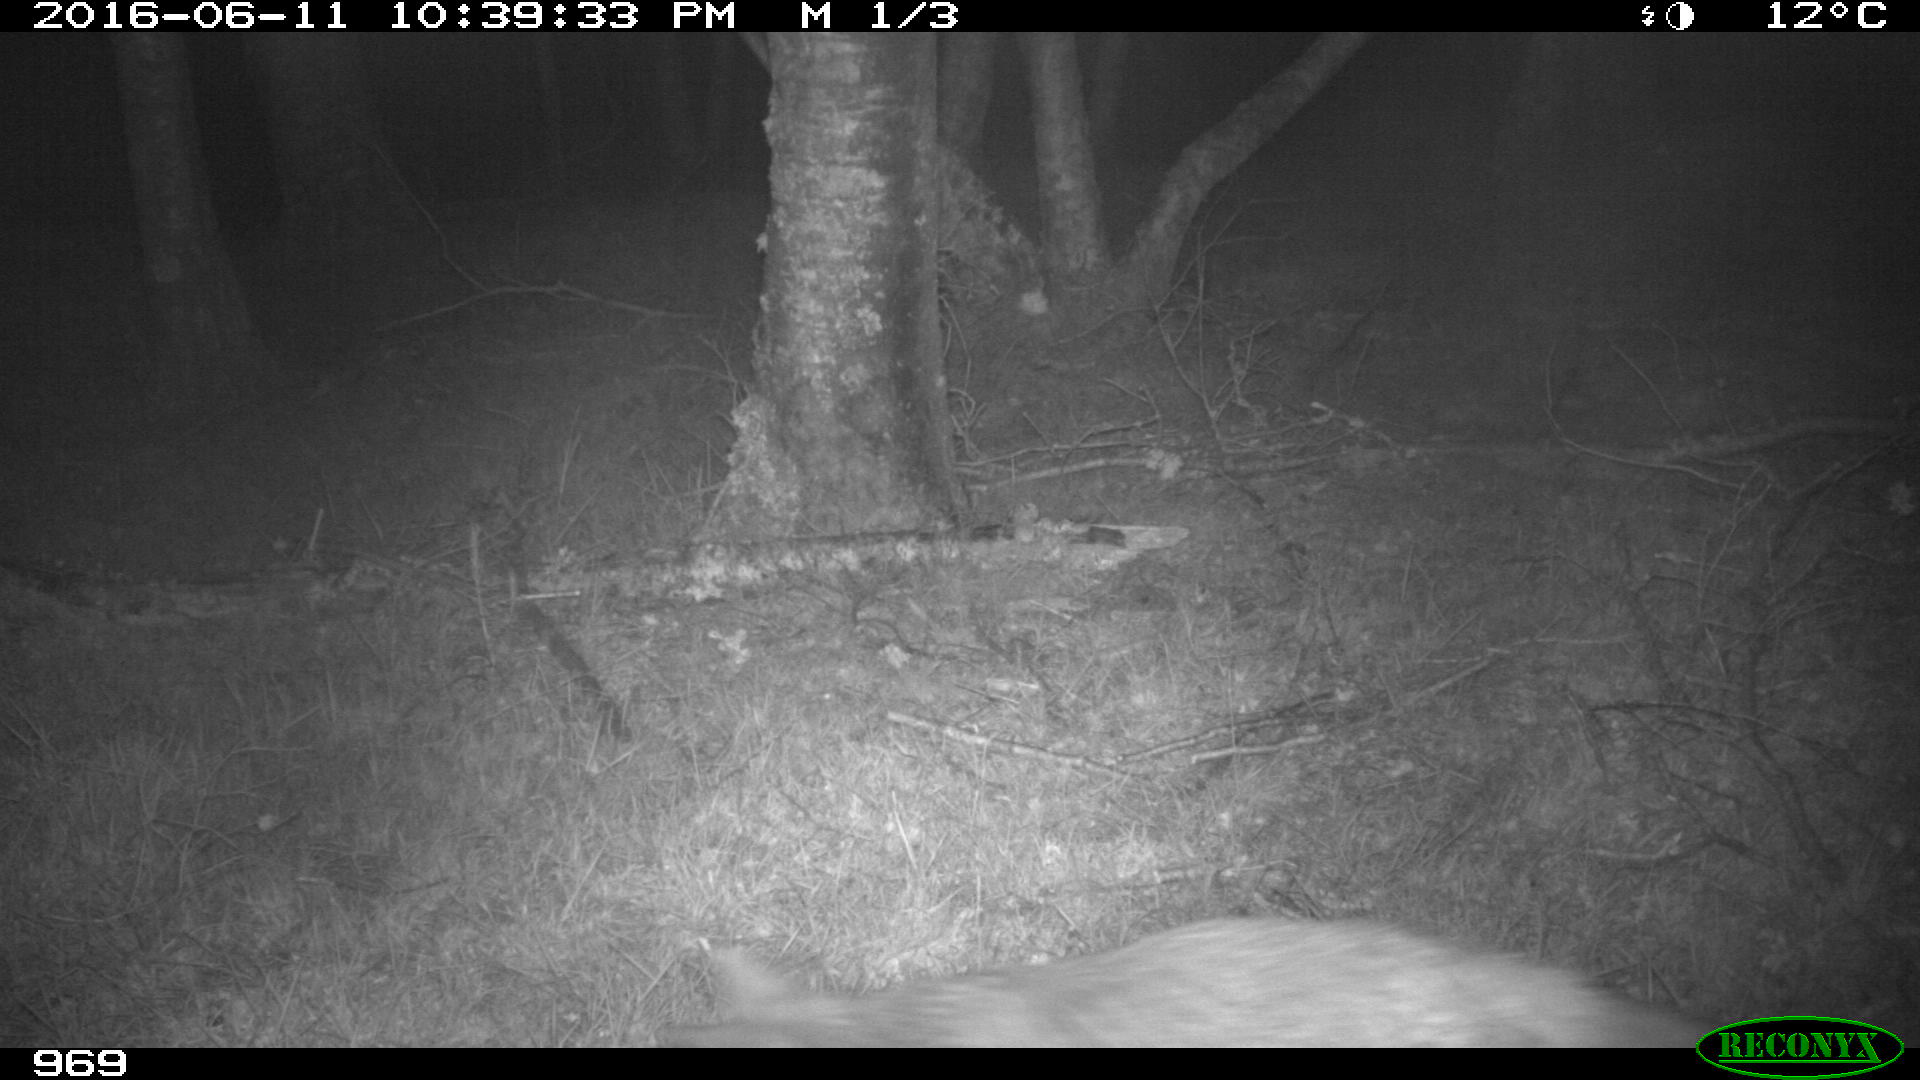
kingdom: Animalia
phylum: Chordata
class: Mammalia
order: Carnivora
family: Canidae
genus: Vulpes
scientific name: Vulpes vulpes
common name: Red fox
